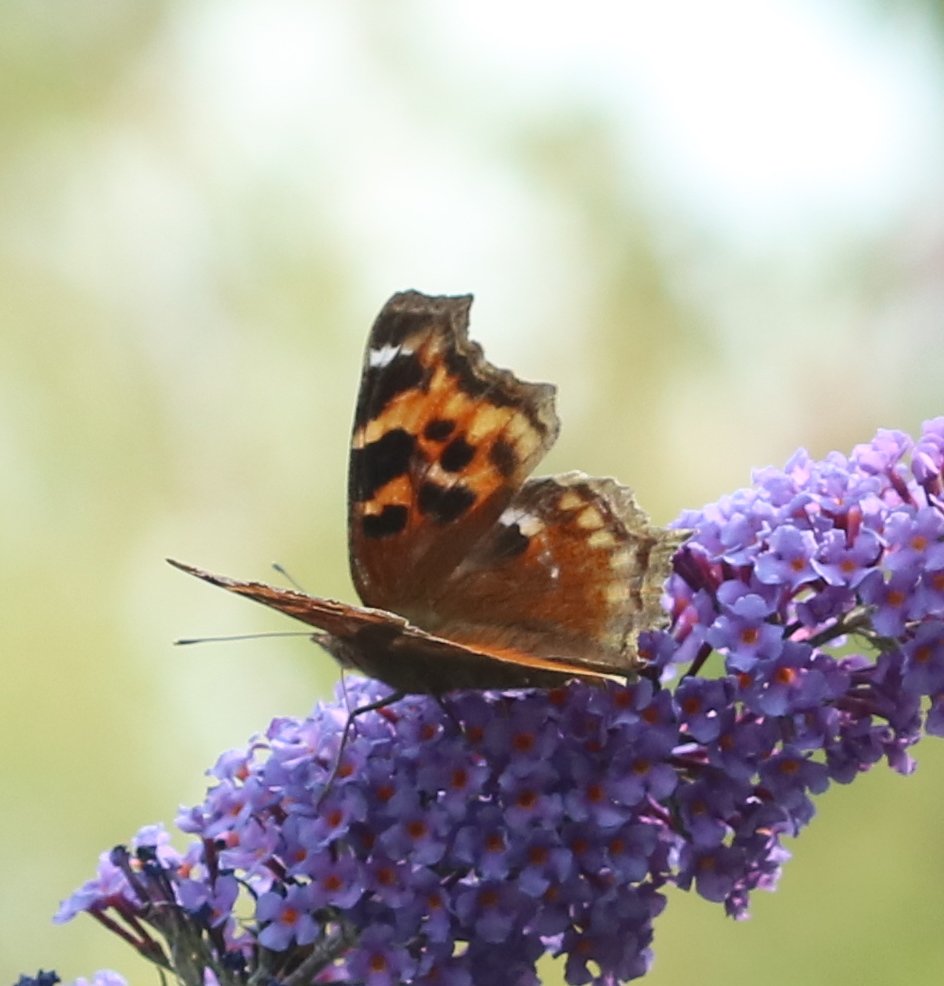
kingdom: Animalia
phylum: Arthropoda
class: Insecta
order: Lepidoptera
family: Nymphalidae
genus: Polygonia
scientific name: Polygonia vaualbum
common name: Compton Tortoiseshell
